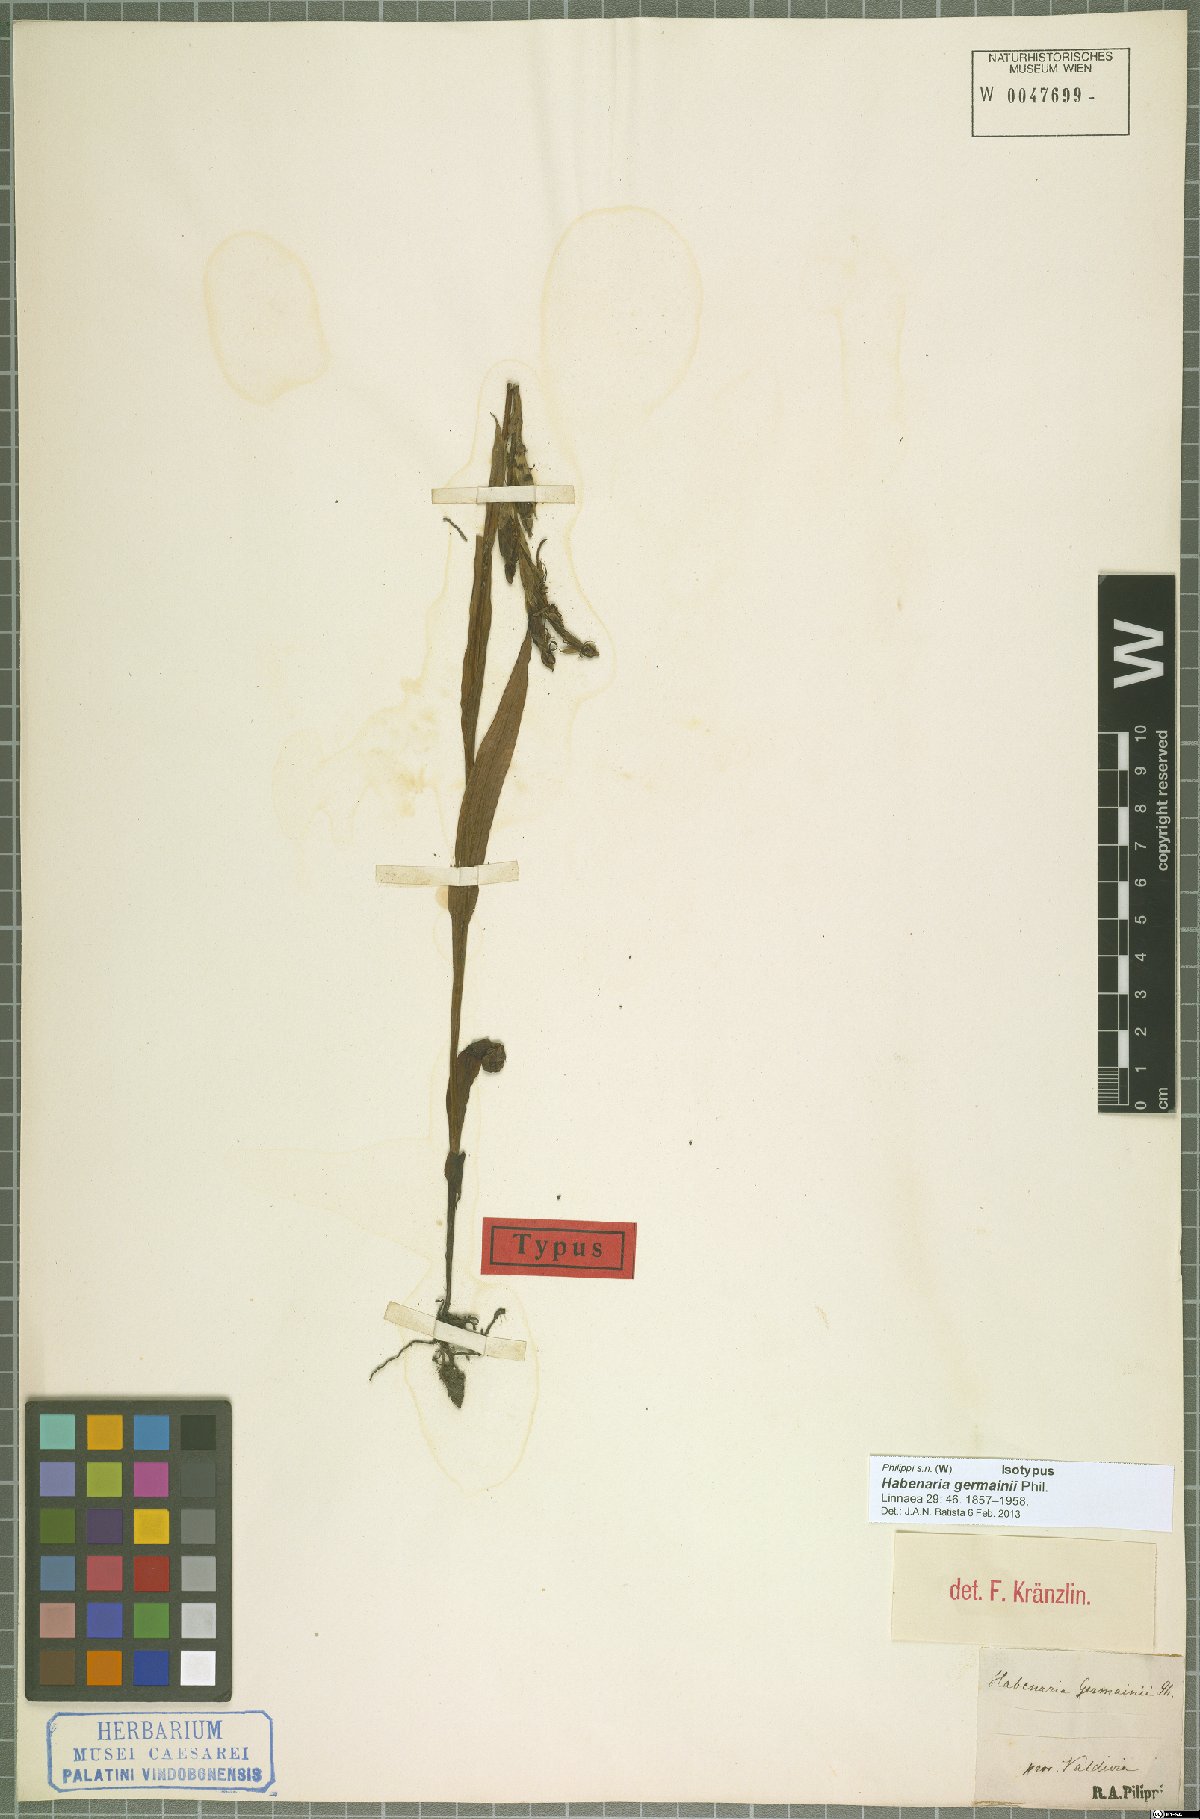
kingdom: Plantae
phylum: Tracheophyta
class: Liliopsida
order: Asparagales
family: Orchidaceae
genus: Habenaria
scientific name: Habenaria pumila
